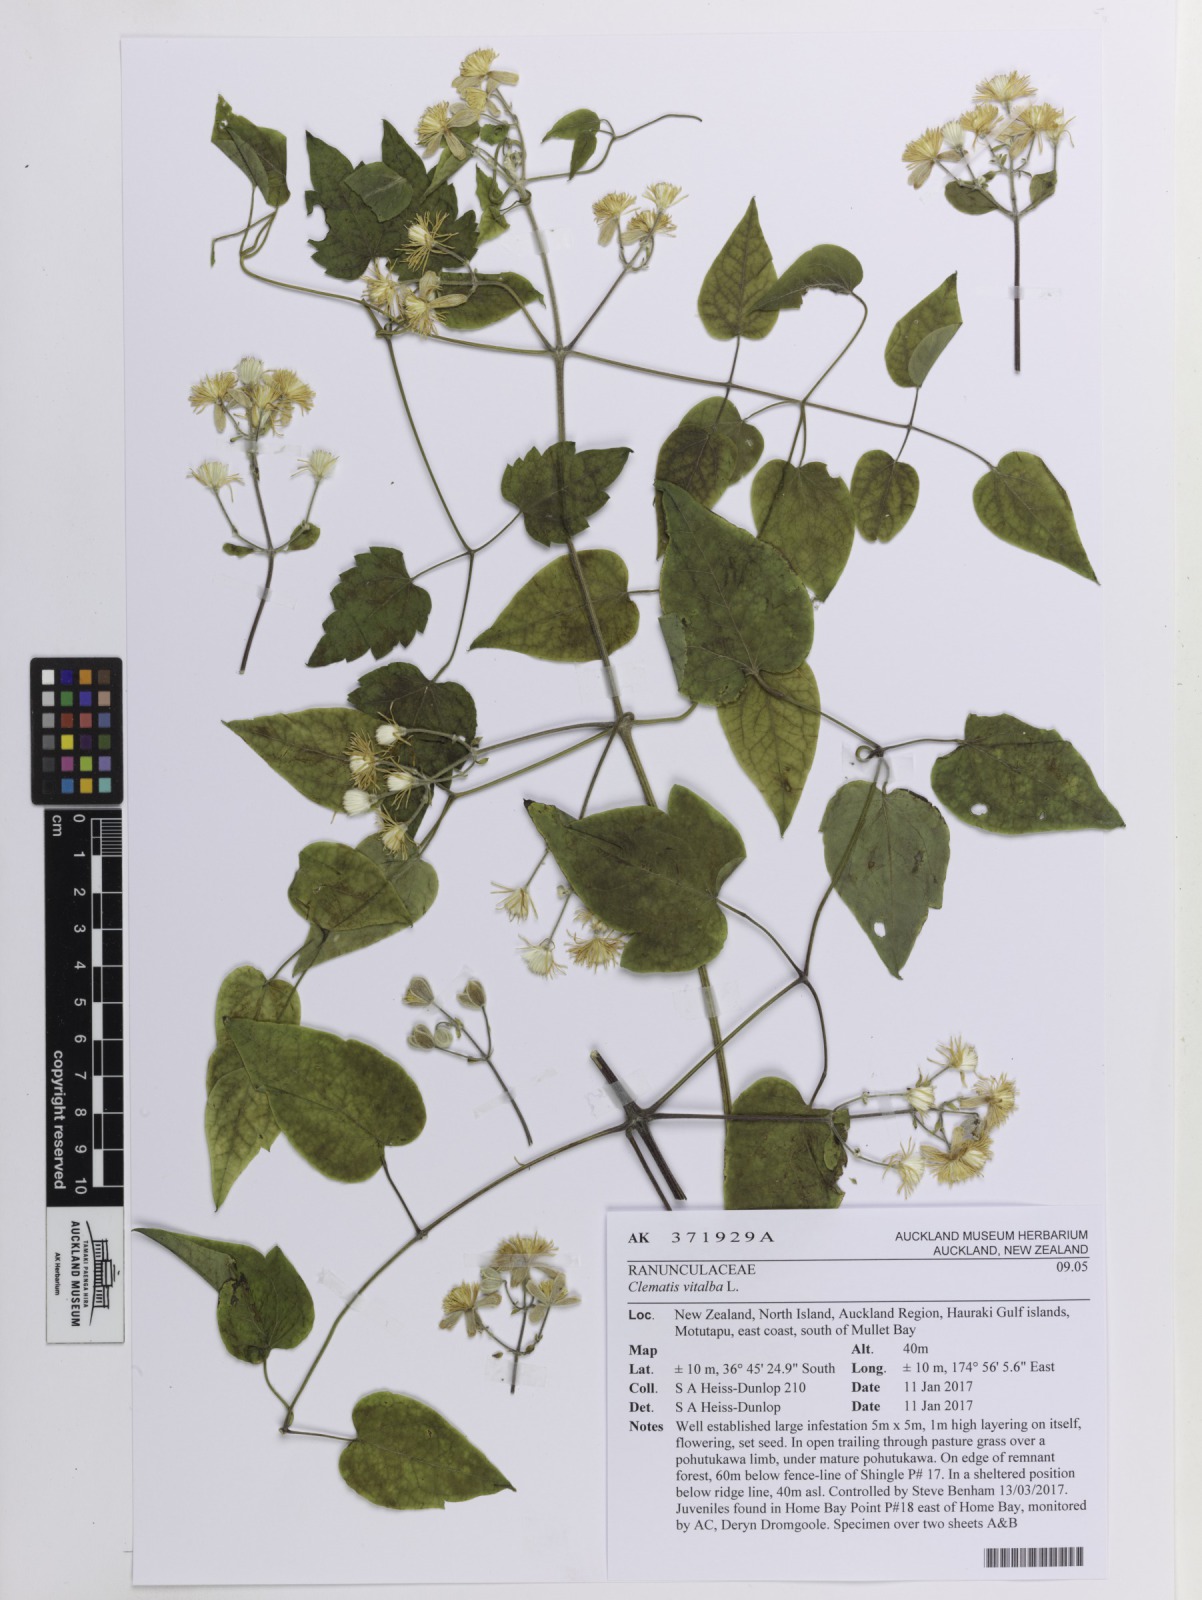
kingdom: Plantae
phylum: Tracheophyta
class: Magnoliopsida
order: Ranunculales
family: Ranunculaceae
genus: Clematis
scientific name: Clematis vitalba
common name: Evergreen clematis
